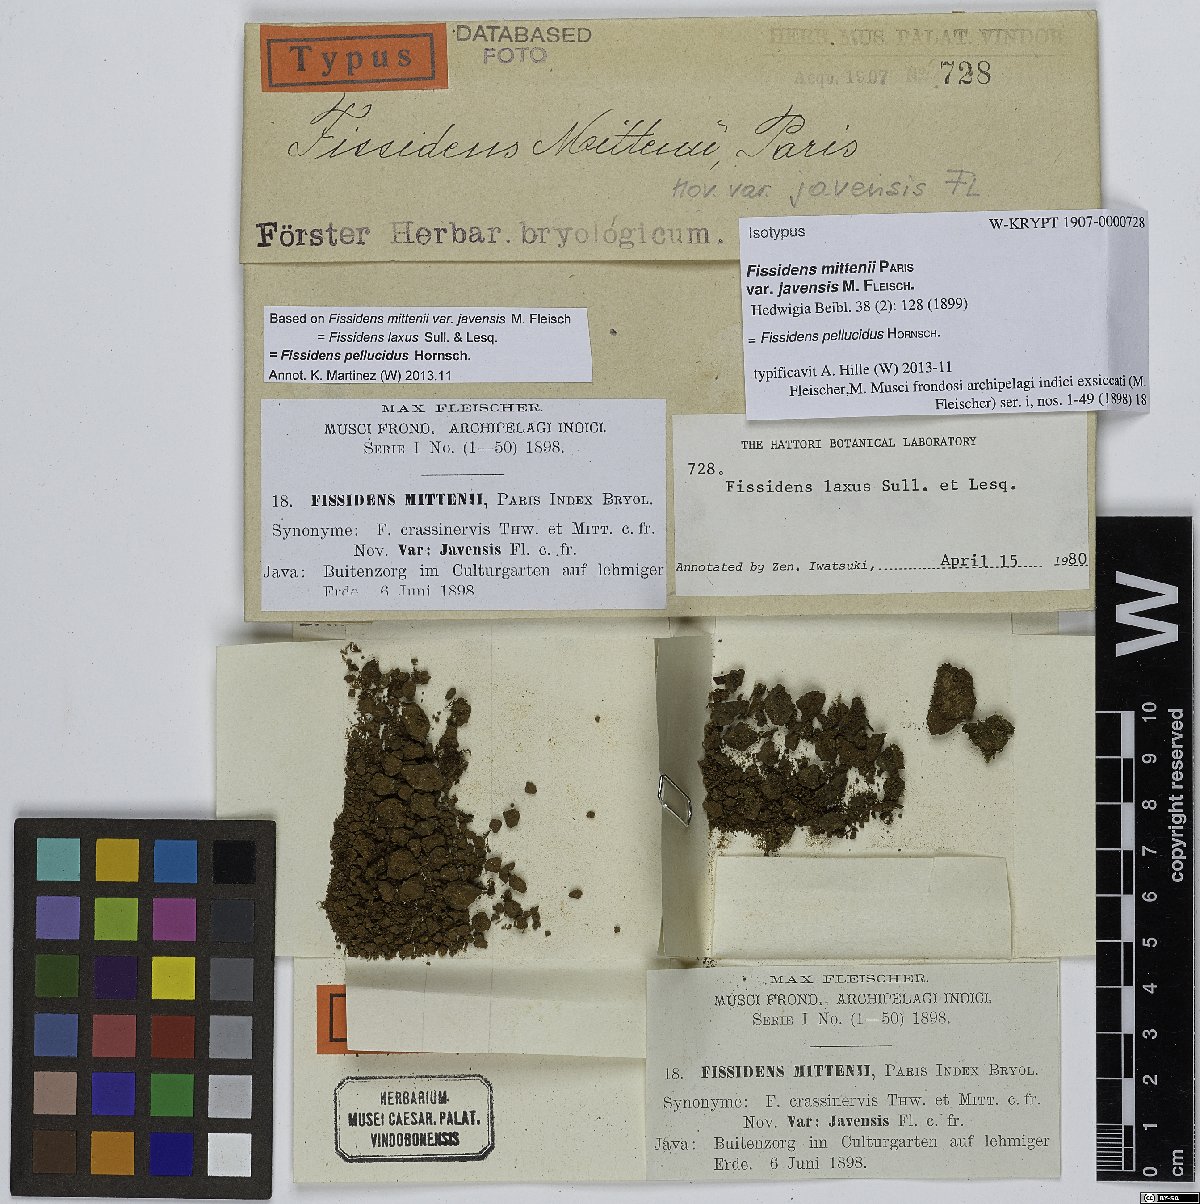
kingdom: Plantae
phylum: Bryophyta
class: Bryopsida
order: Dicranales
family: Fissidentaceae
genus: Fissidens
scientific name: Fissidens pellucidus
